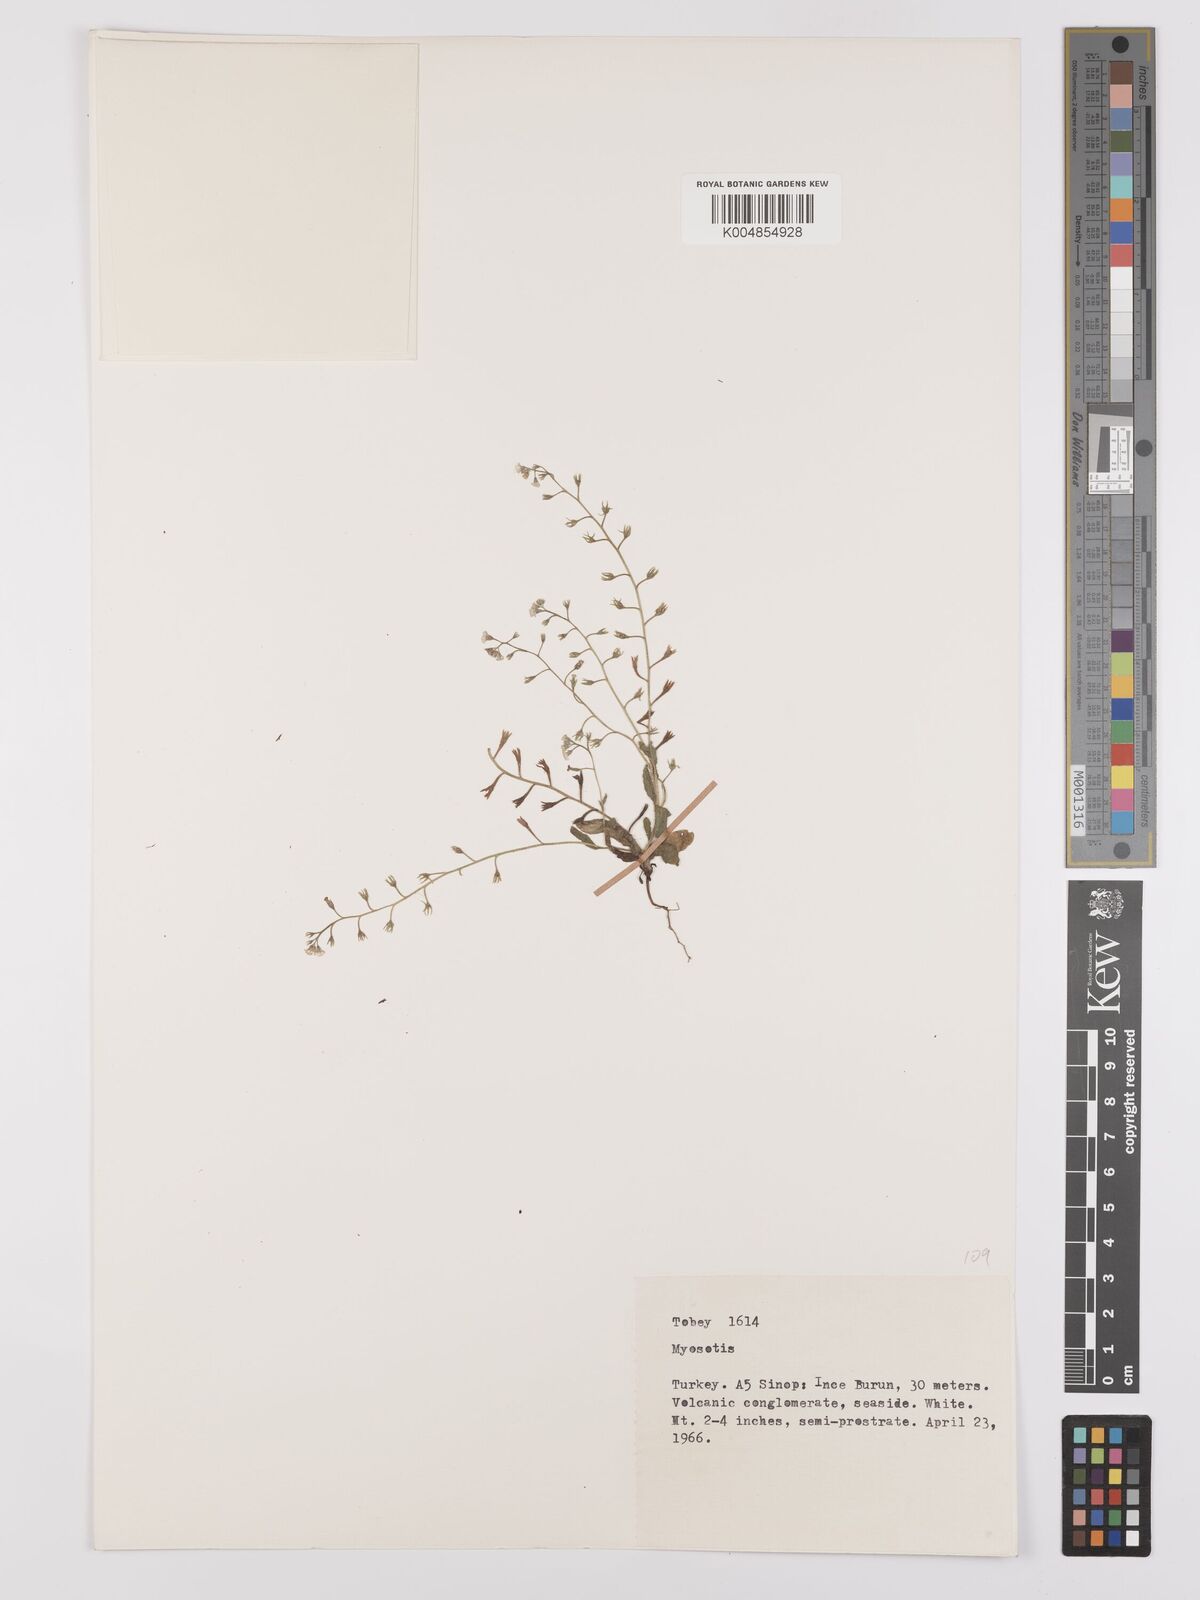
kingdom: Plantae
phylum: Tracheophyta
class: Magnoliopsida
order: Boraginales
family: Boraginaceae
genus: Myosotis
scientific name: Myosotis
